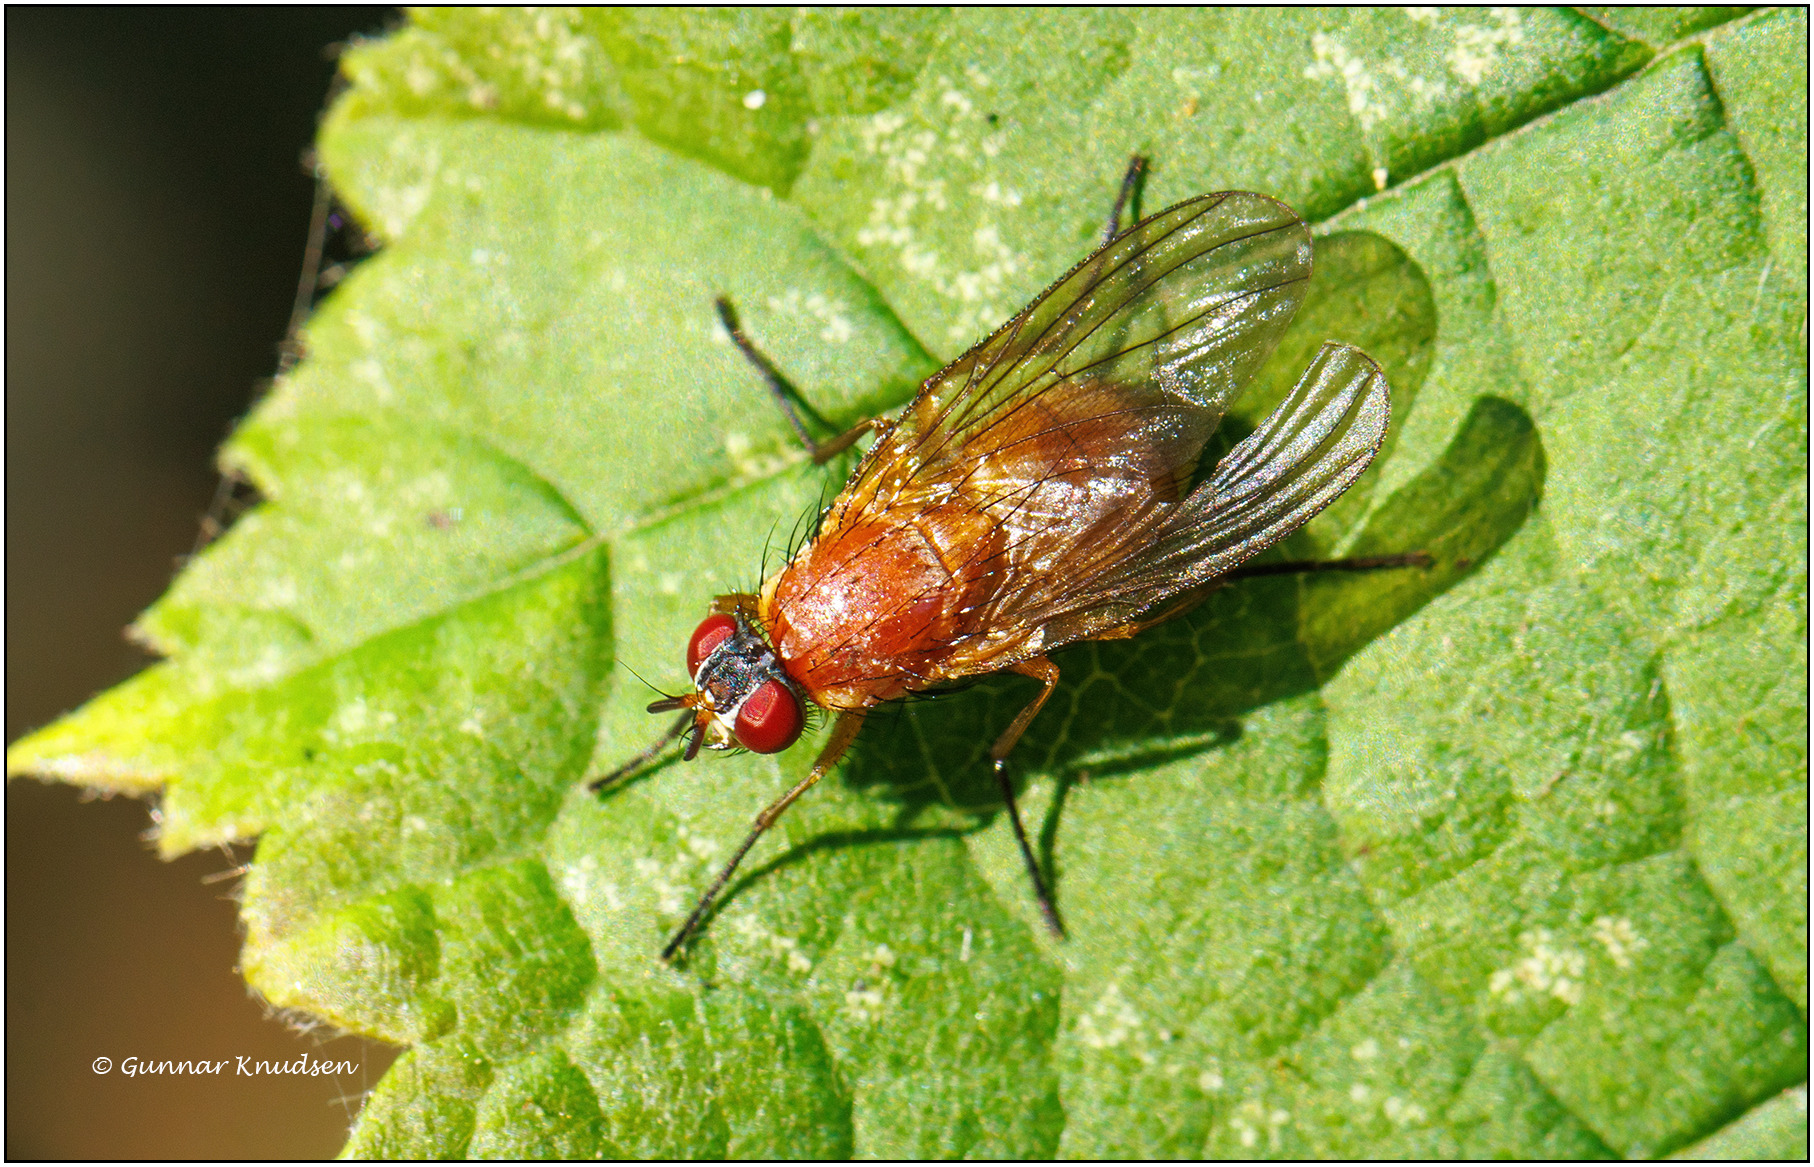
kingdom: Animalia
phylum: Arthropoda
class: Insecta
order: Diptera
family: Muscidae
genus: Thricops
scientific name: Thricops diaphanus
